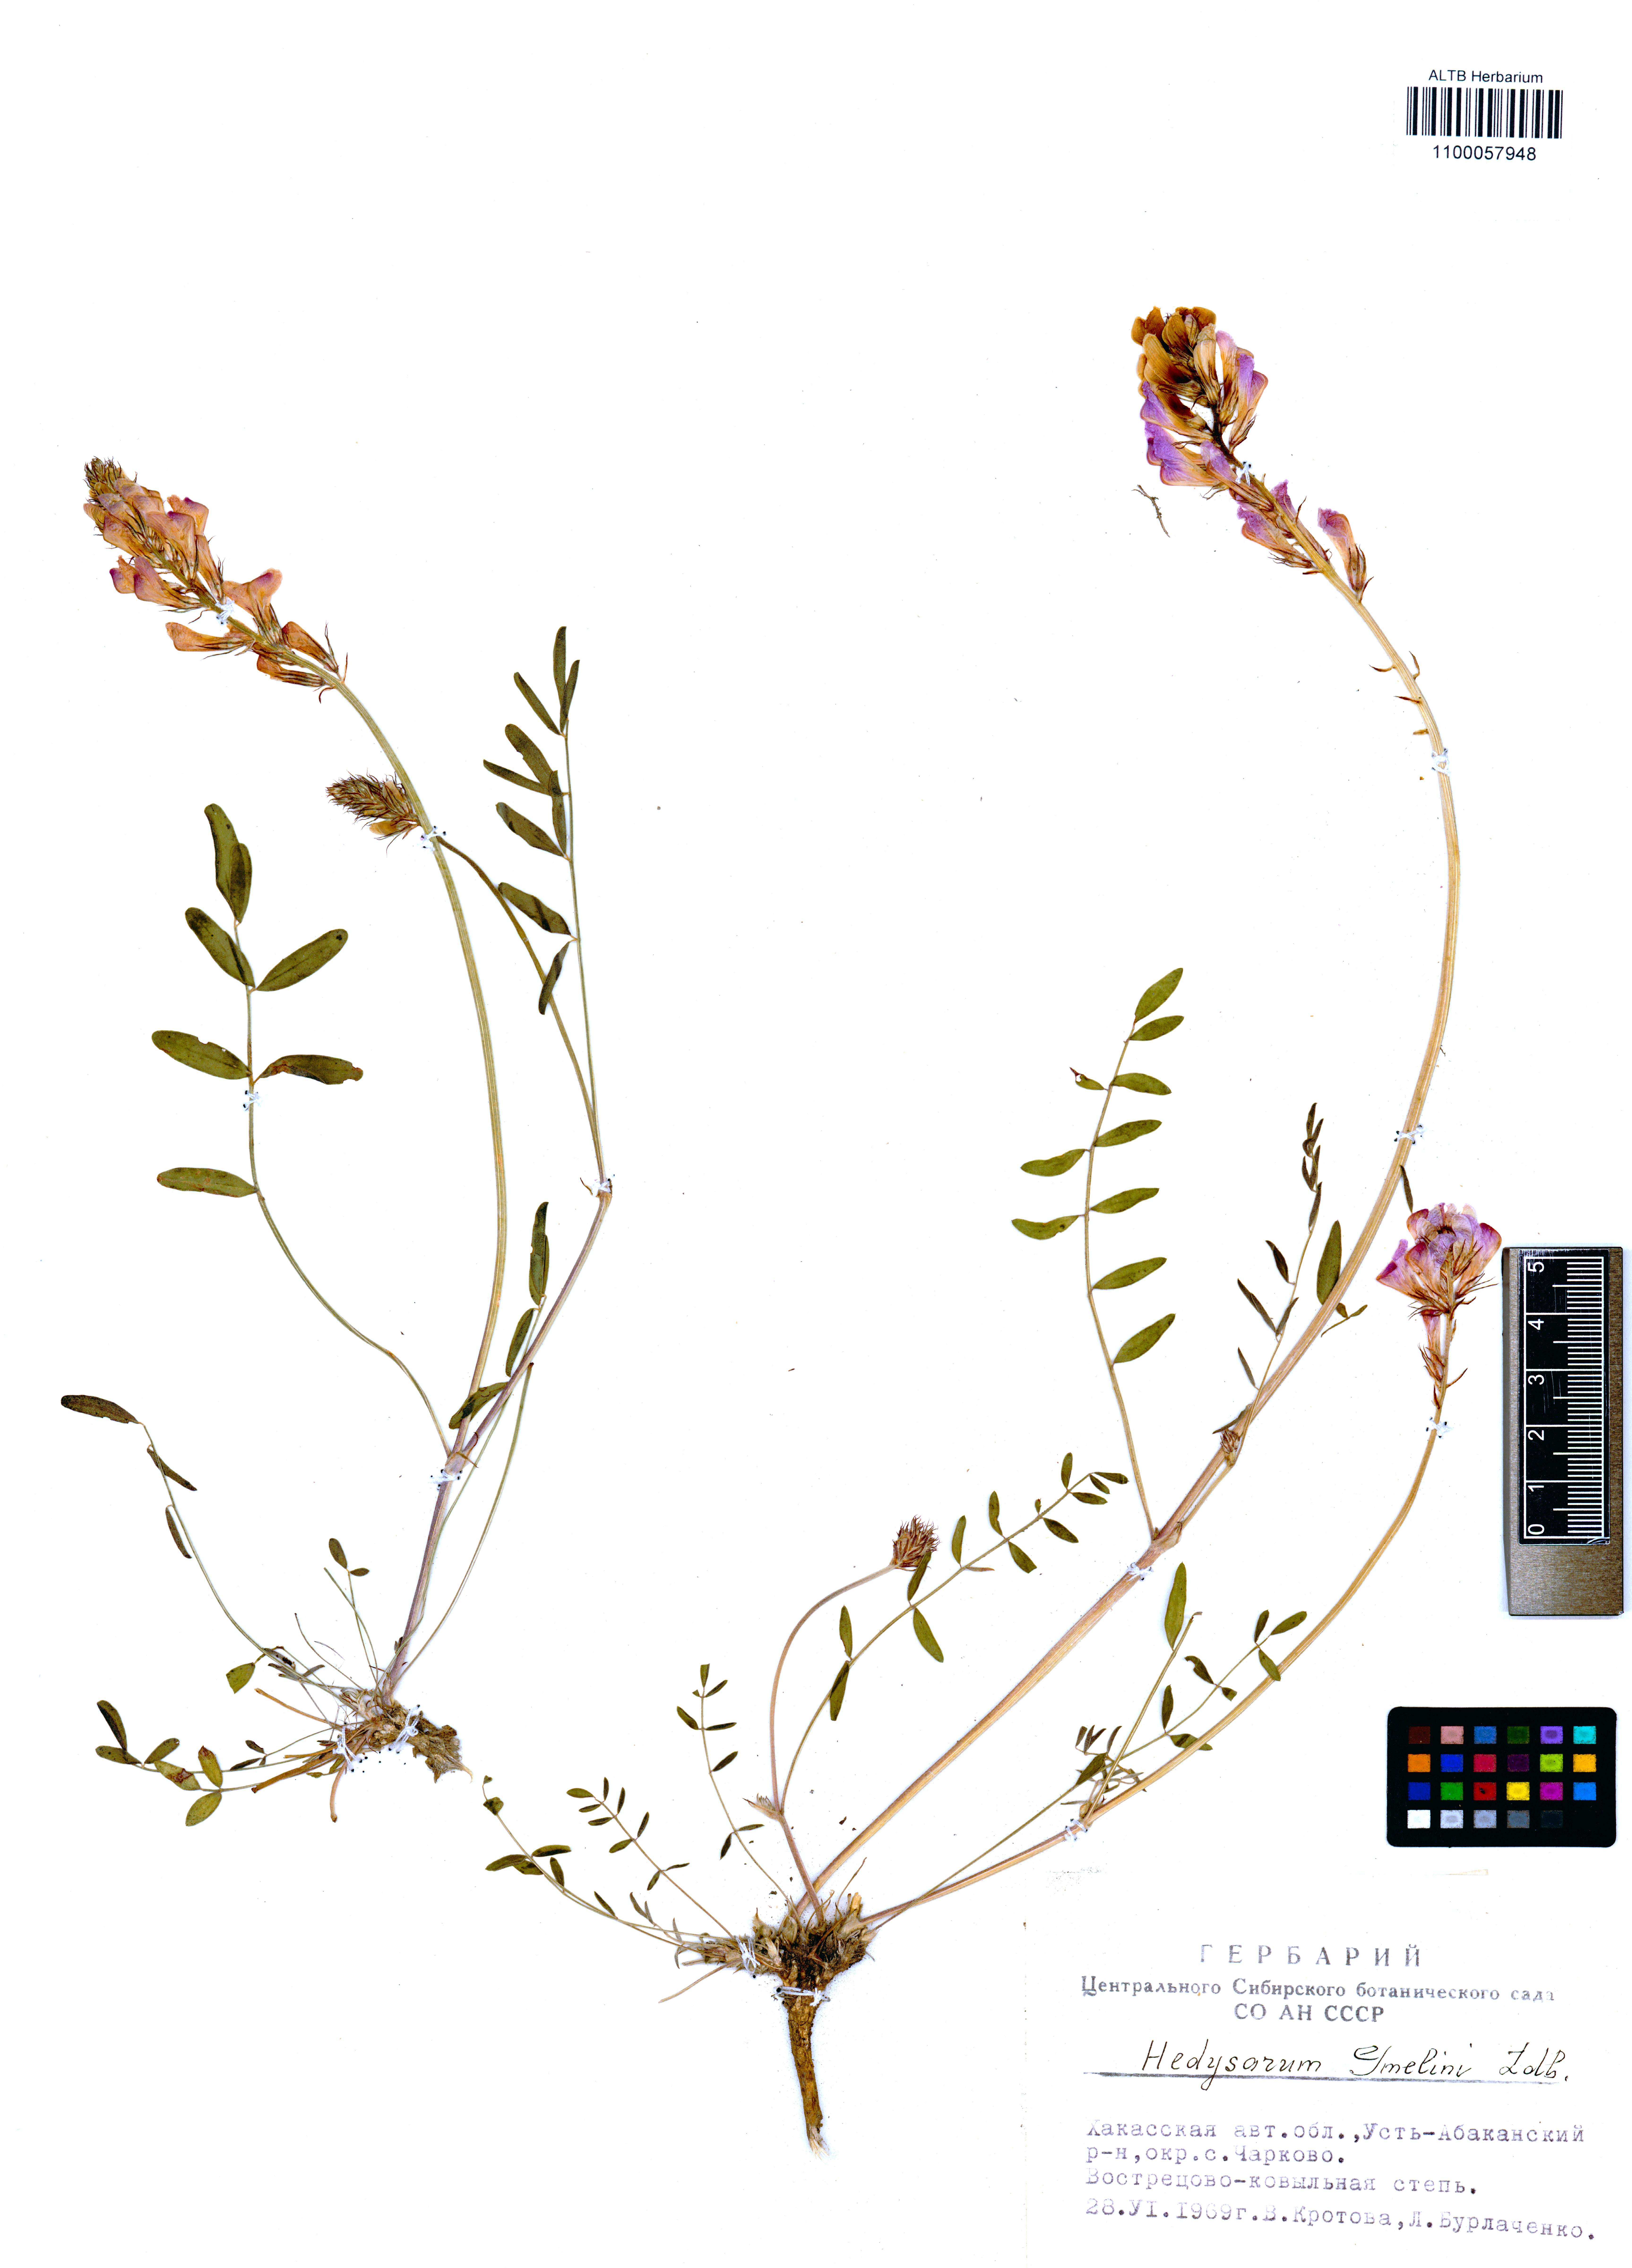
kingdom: Plantae
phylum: Tracheophyta
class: Magnoliopsida
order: Fabales
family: Fabaceae
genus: Hedysarum
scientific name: Hedysarum gmelinii
